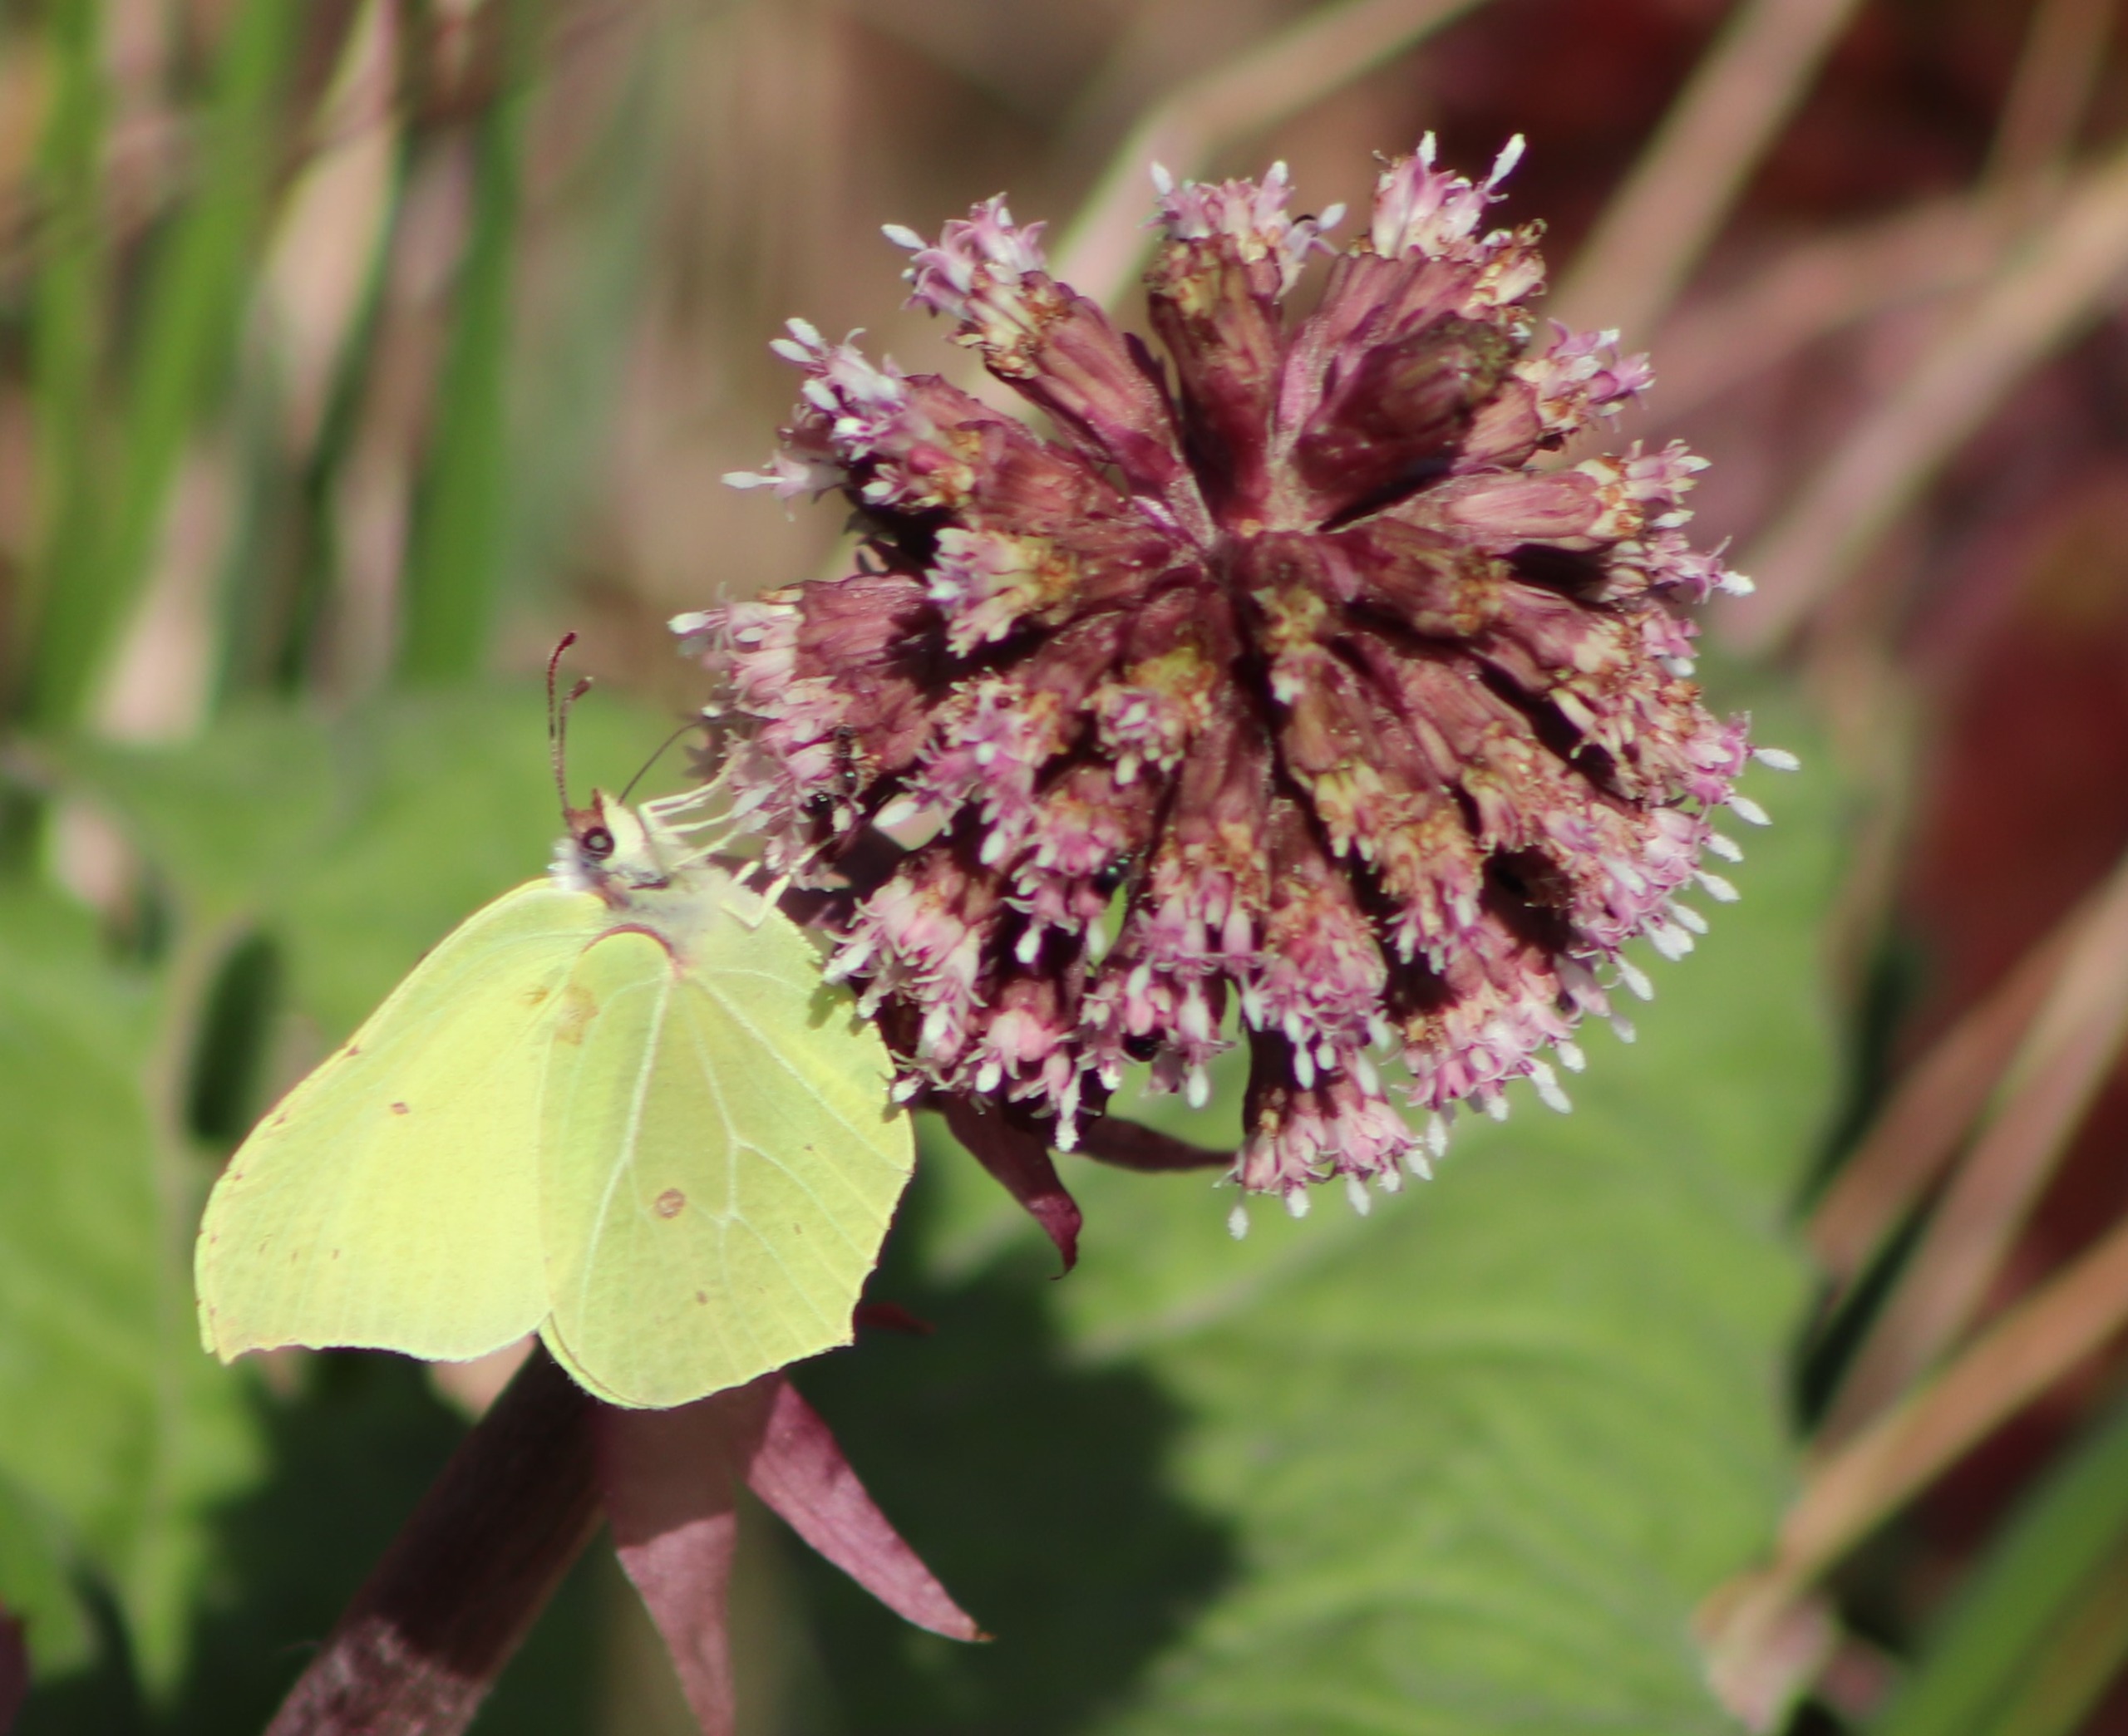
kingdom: Animalia
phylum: Arthropoda
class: Insecta
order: Lepidoptera
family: Pieridae
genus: Gonepteryx
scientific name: Gonepteryx rhamni
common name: Citronsommerfugl
